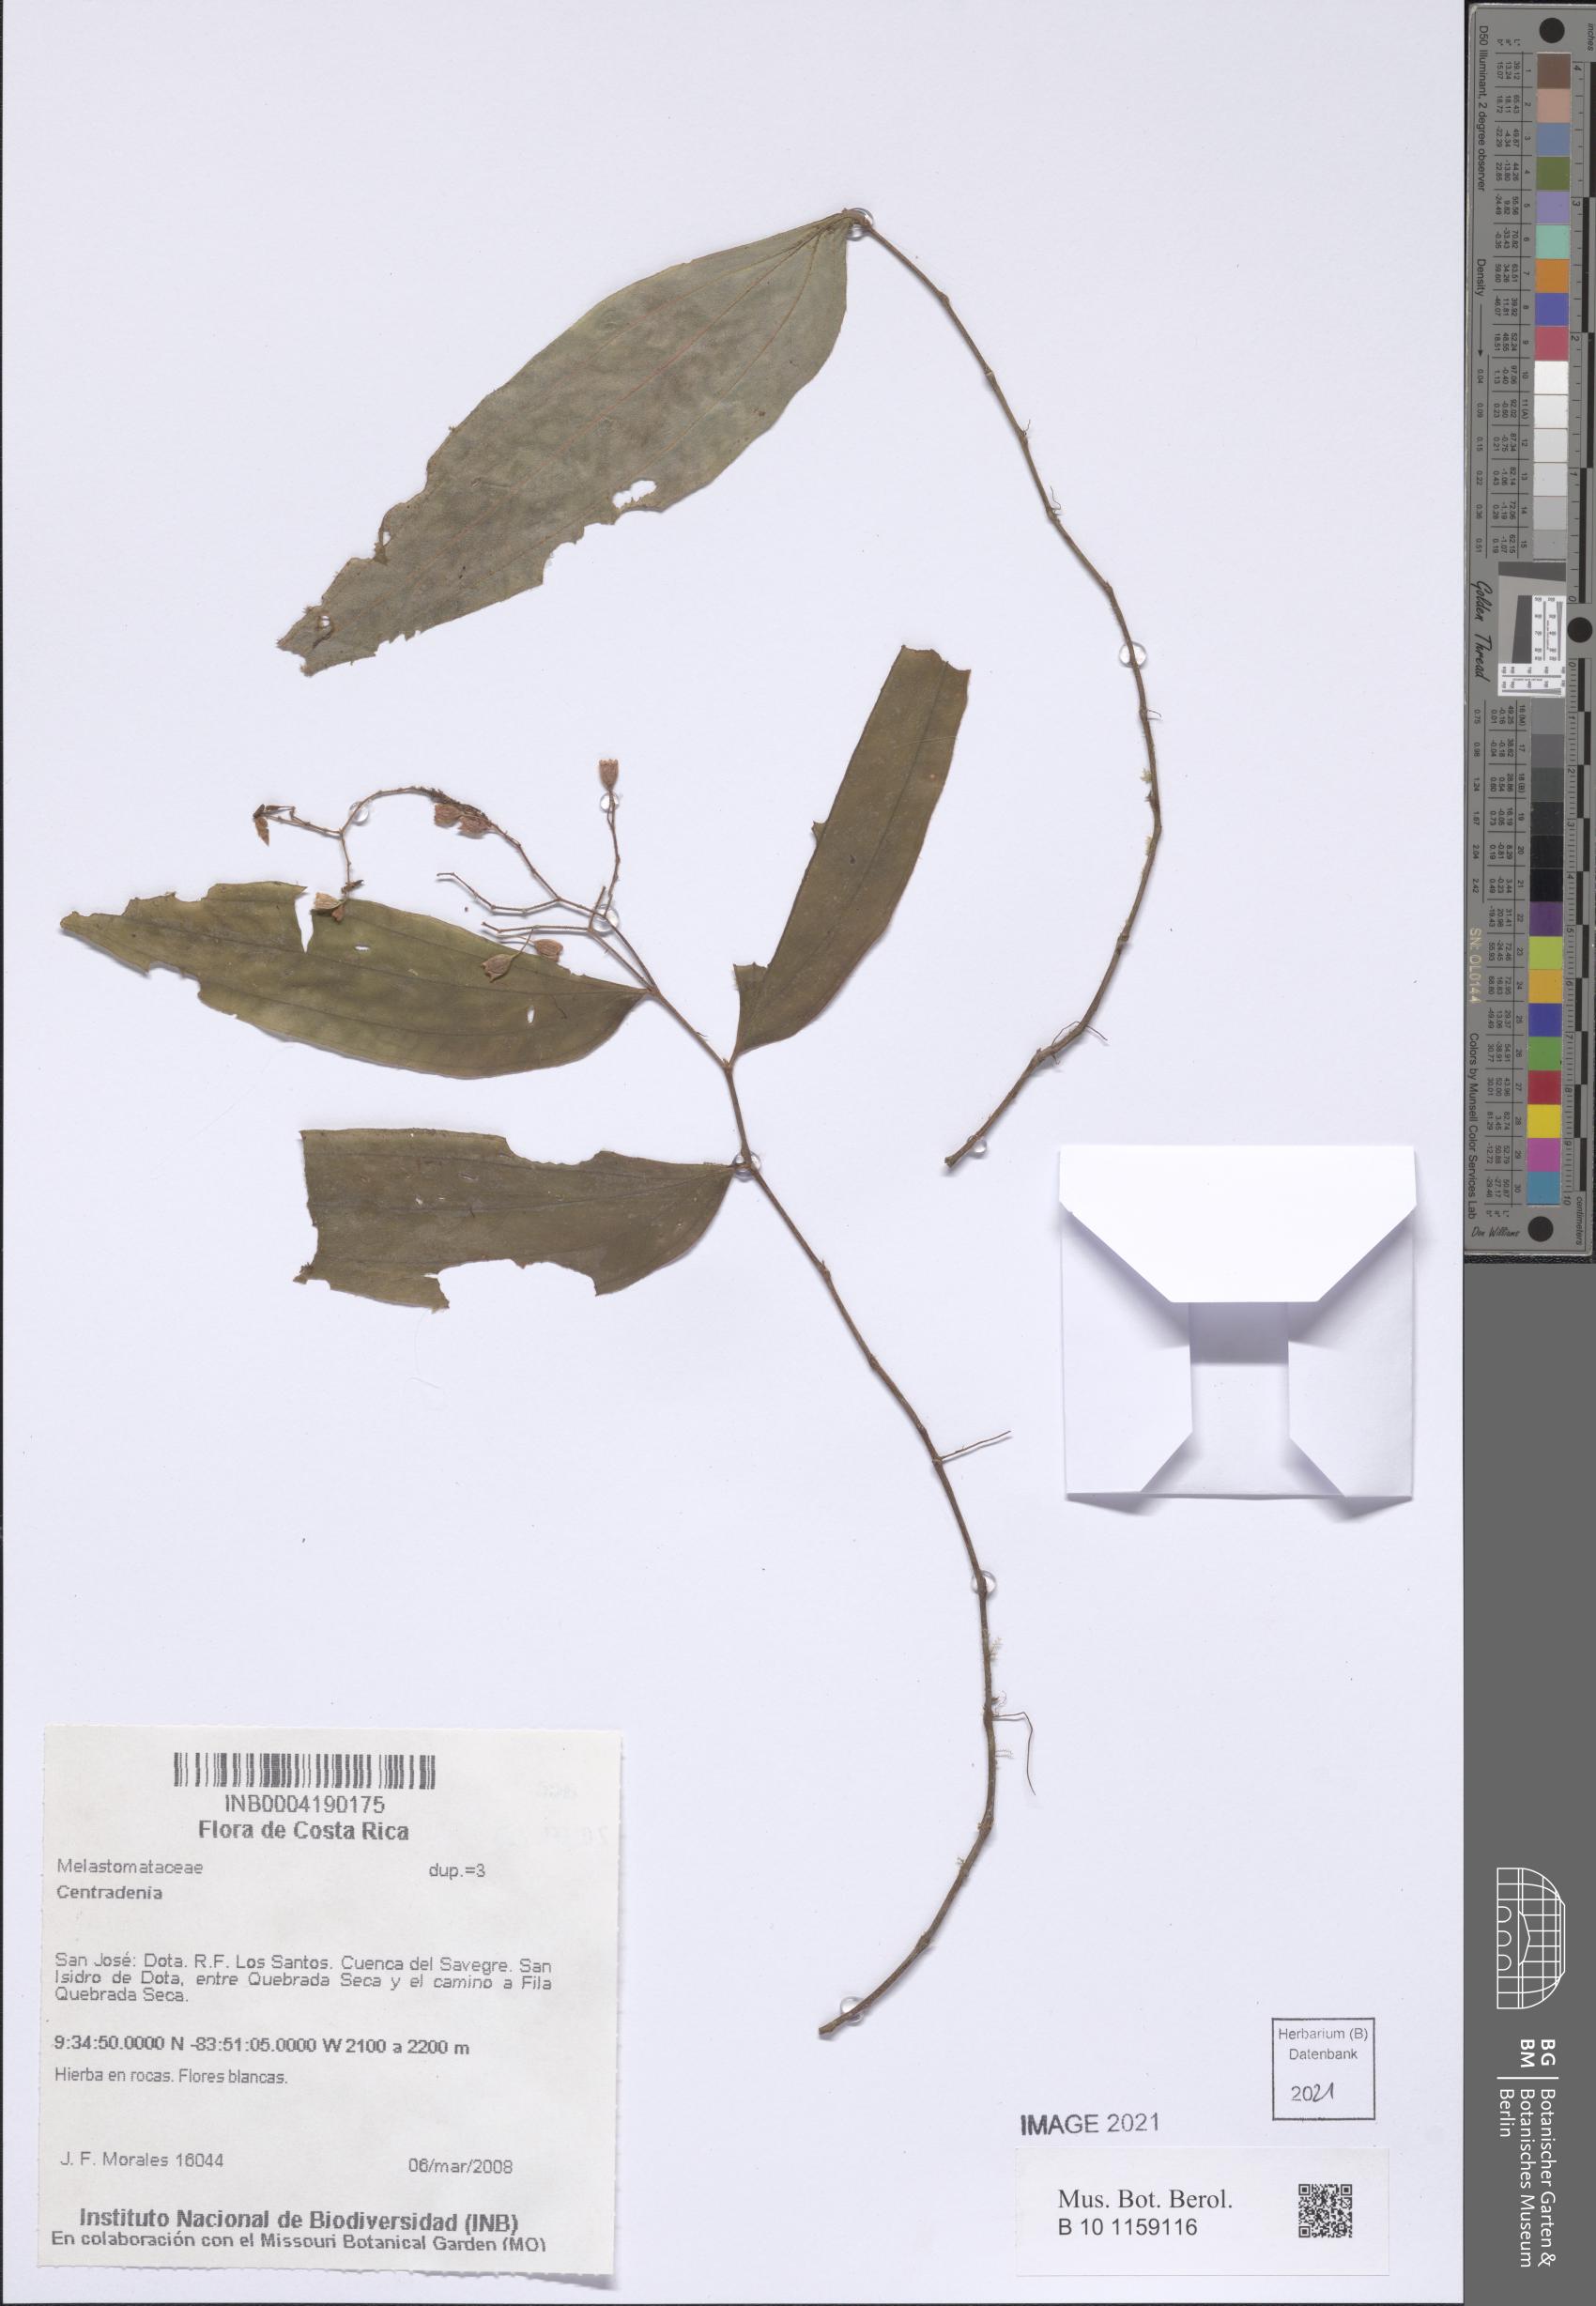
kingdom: Plantae
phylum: Tracheophyta
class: Magnoliopsida
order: Myrtales
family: Melastomataceae
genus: Centradenia
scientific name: Centradenia
